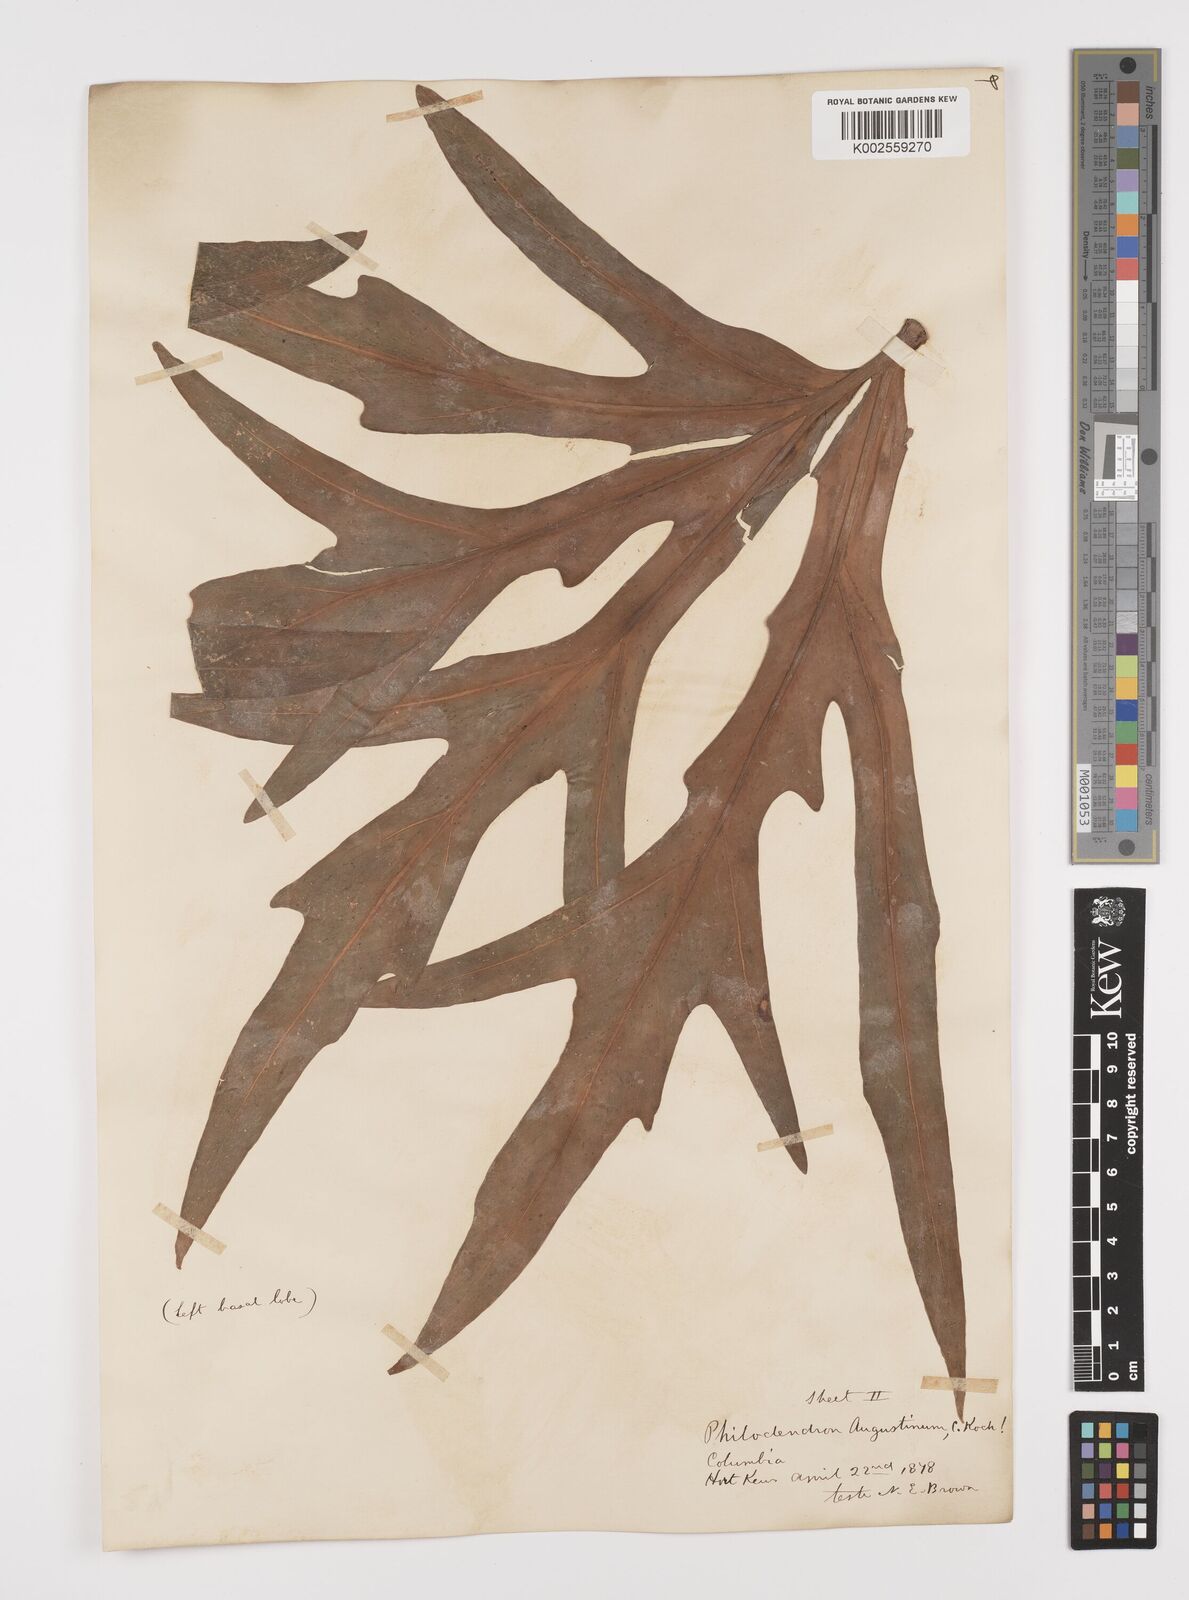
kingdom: Plantae
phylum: Tracheophyta
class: Liliopsida
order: Alismatales
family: Araceae
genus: Philodendron
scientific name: Philodendron radiatum
